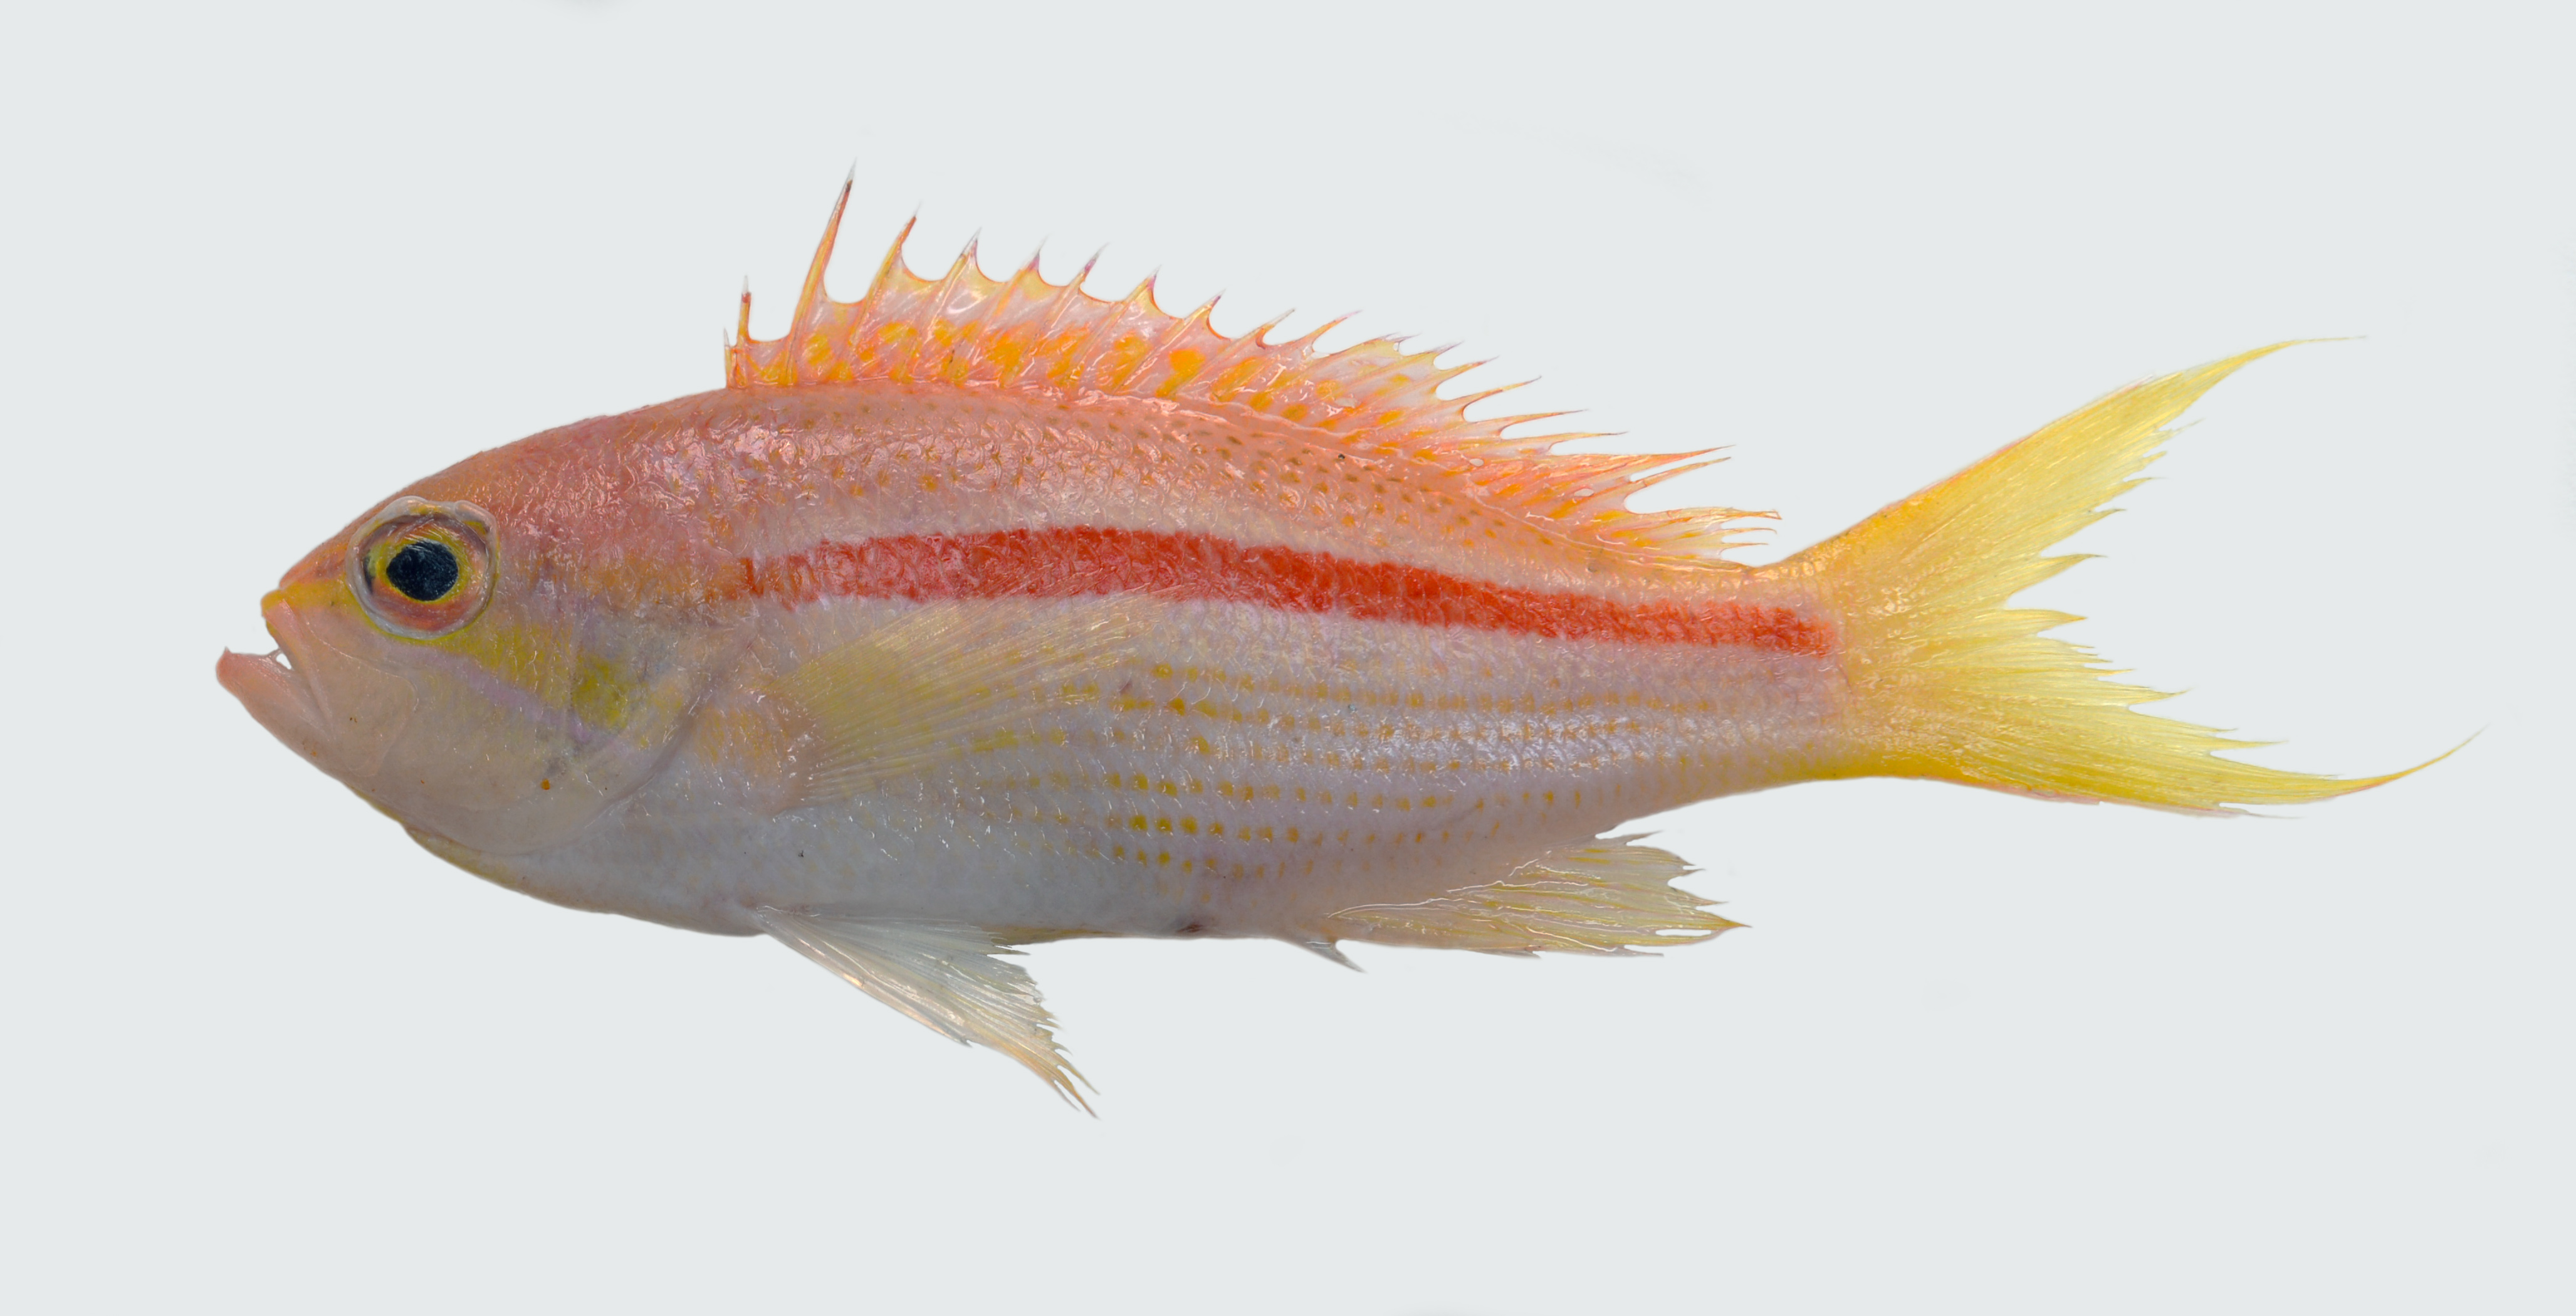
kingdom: Animalia
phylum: Chordata
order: Perciformes
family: Serranidae
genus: Pseudanthias
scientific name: Pseudanthias gibbosus
